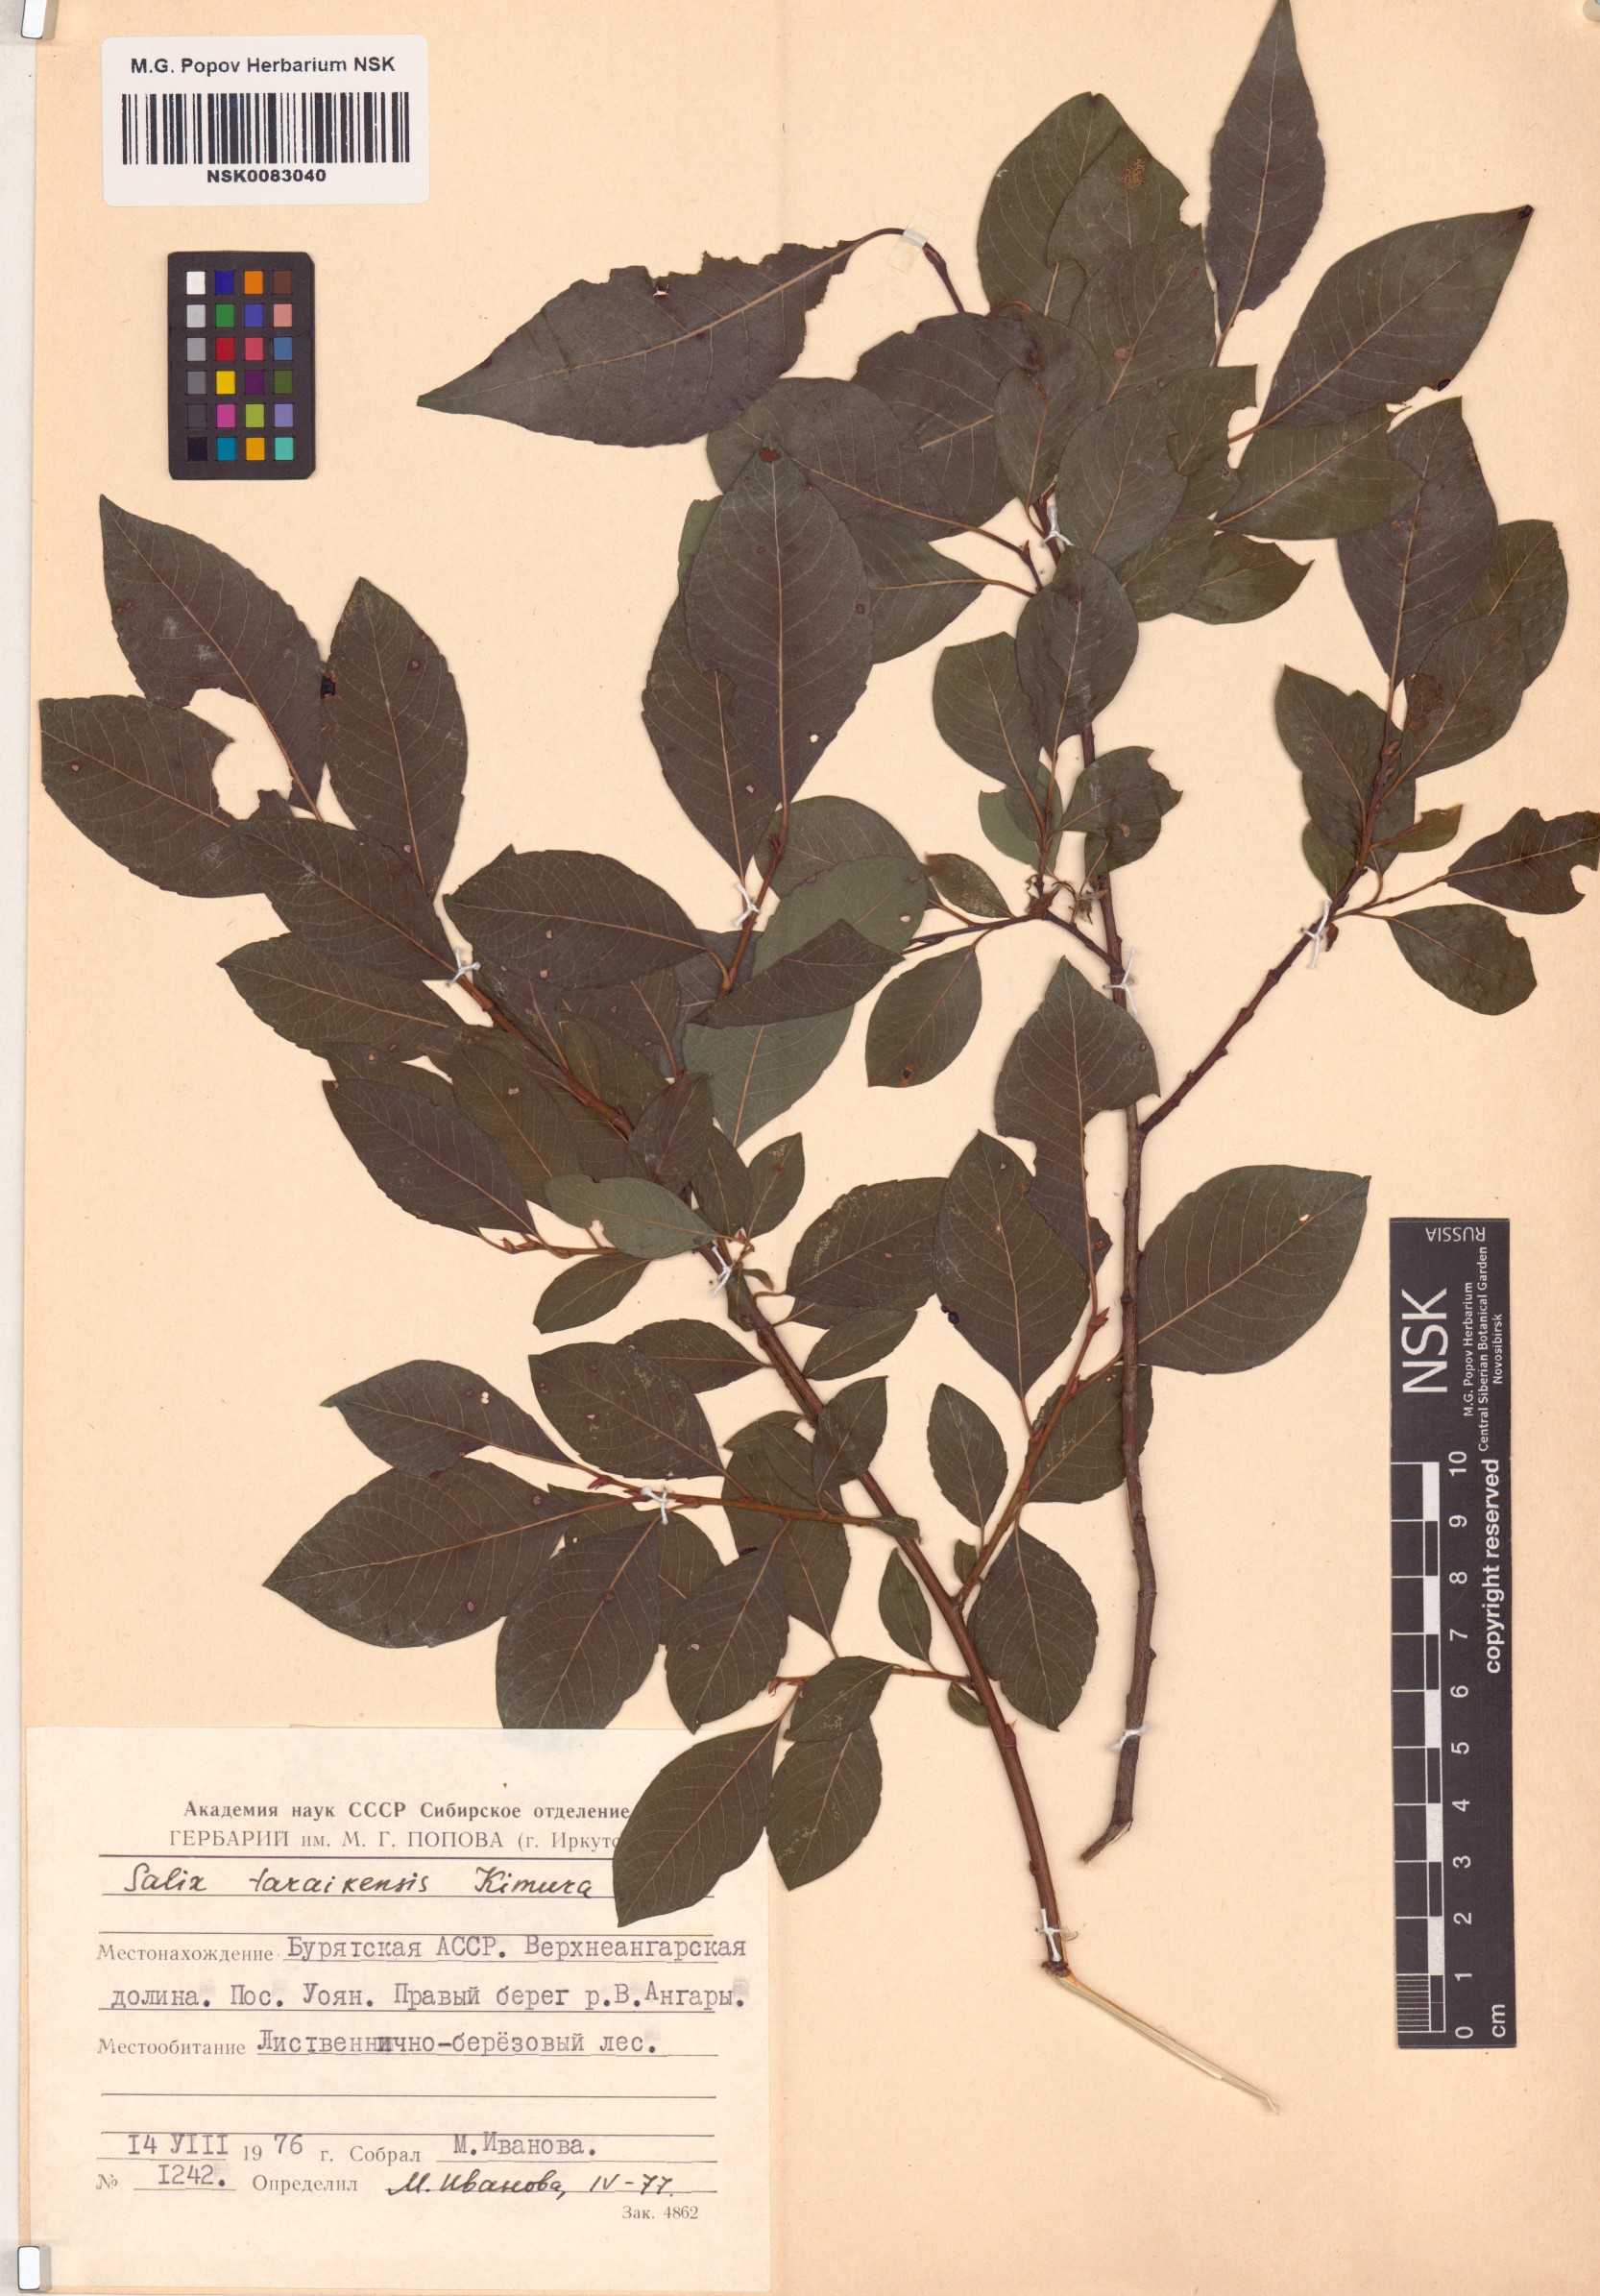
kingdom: Plantae
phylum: Tracheophyta
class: Magnoliopsida
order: Malpighiales
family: Salicaceae
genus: Salix
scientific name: Salix taraikensis
